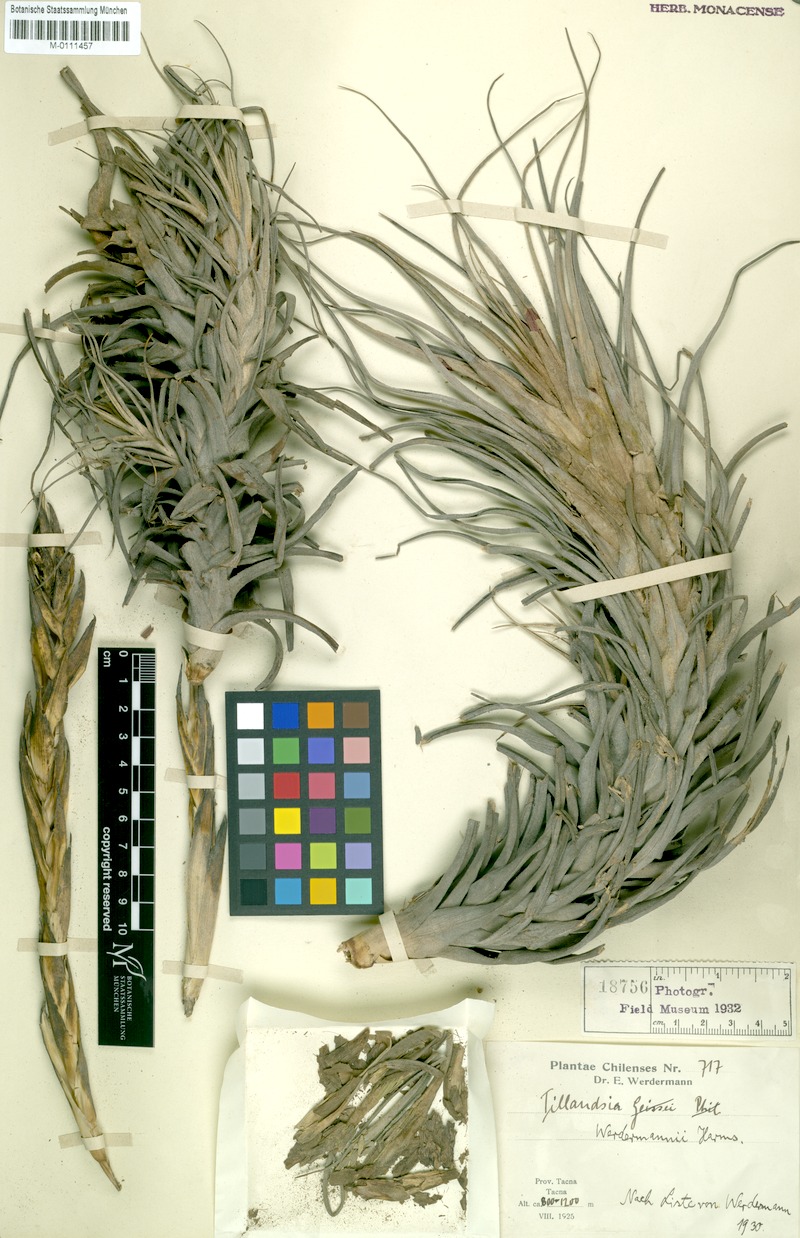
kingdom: Plantae
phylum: Tracheophyta
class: Liliopsida
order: Poales
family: Bromeliaceae
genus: Tillandsia
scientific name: Tillandsia werdermannii
